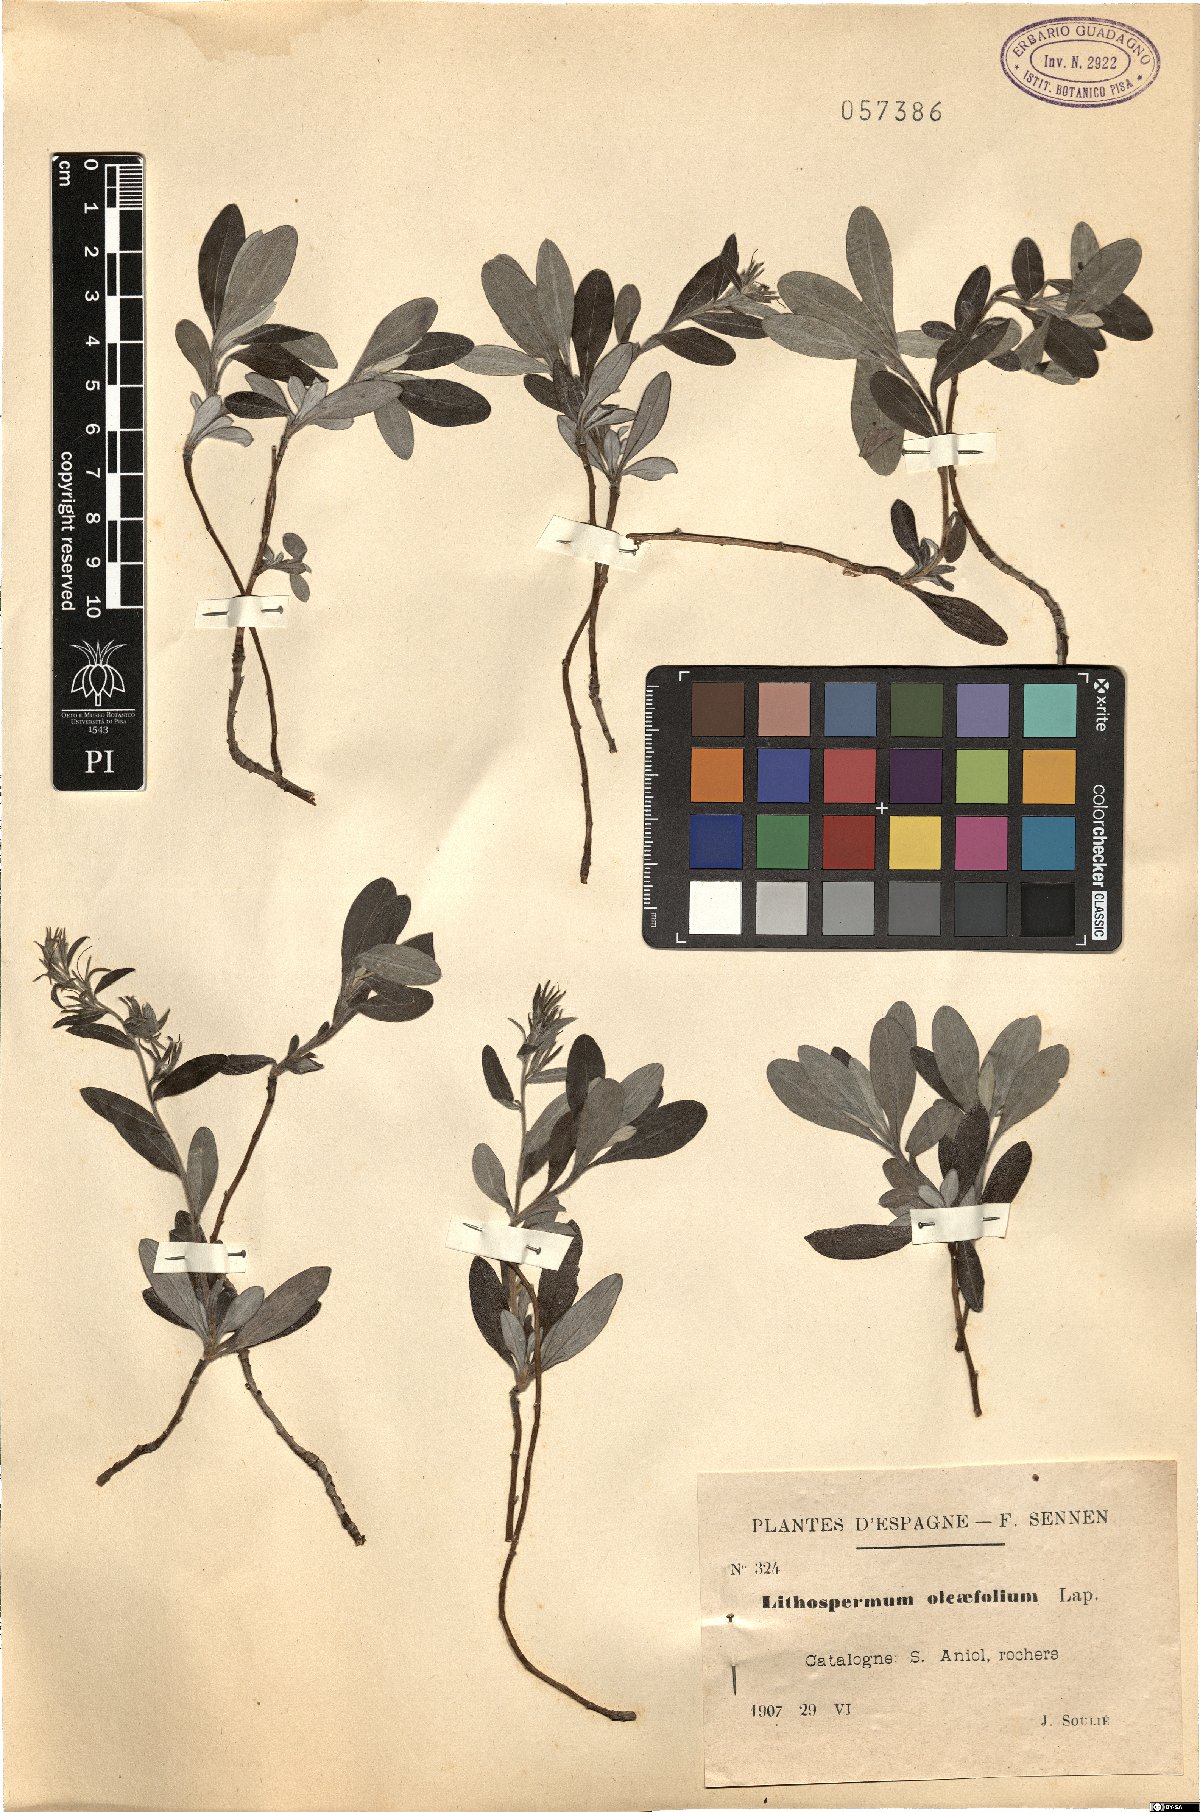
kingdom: Plantae
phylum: Tracheophyta
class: Magnoliopsida
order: Boraginales
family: Boraginaceae
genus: Glandora
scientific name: Glandora oleifolia
